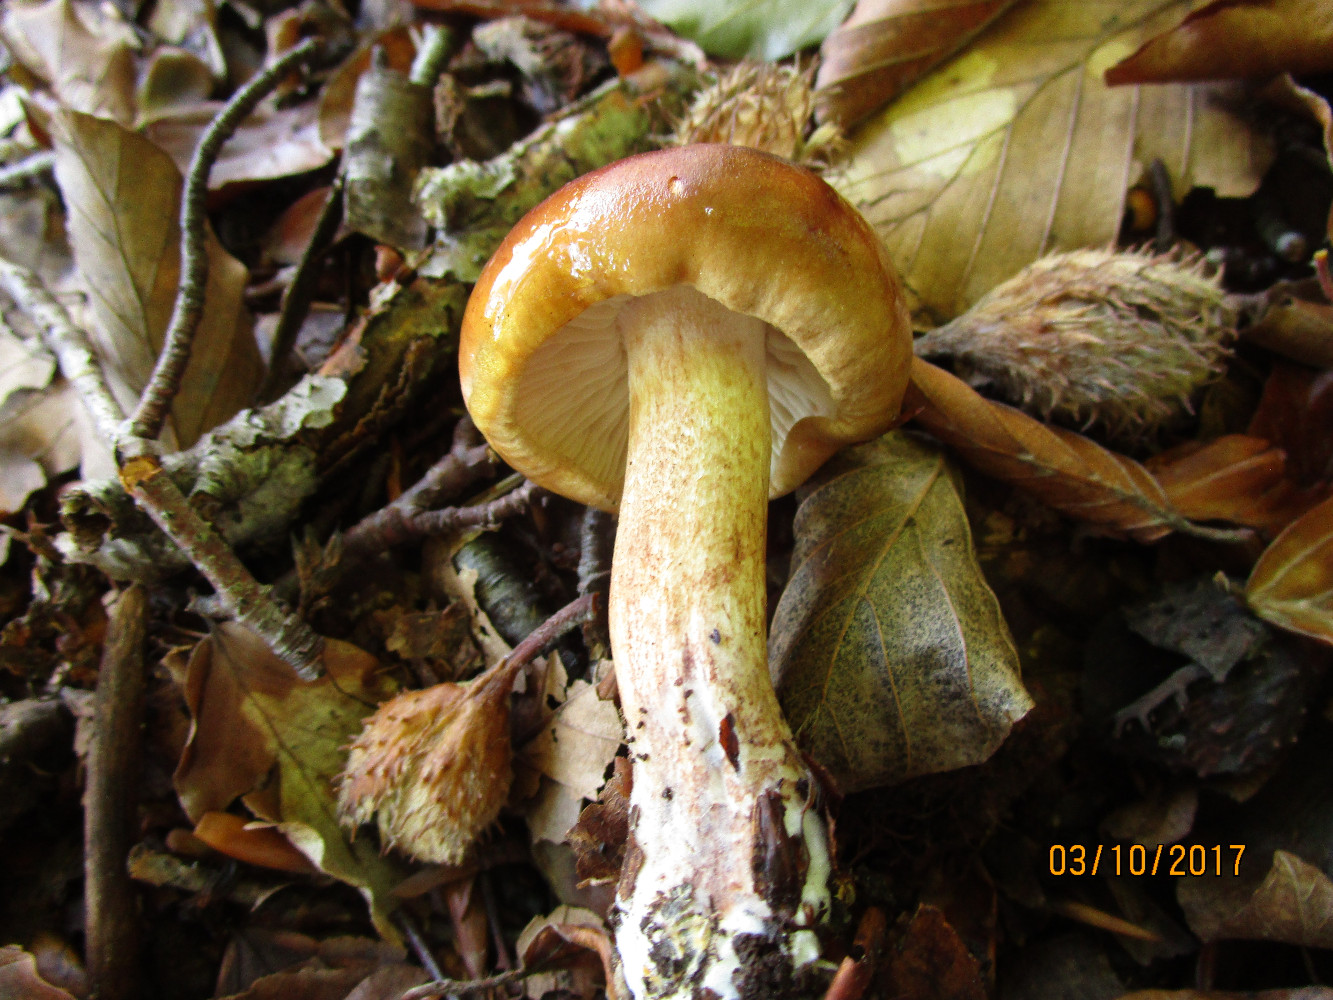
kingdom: Fungi
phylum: Basidiomycota
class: Agaricomycetes
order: Agaricales
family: Tricholomataceae
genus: Tricholoma
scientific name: Tricholoma ustale
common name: sveden ridderhat
